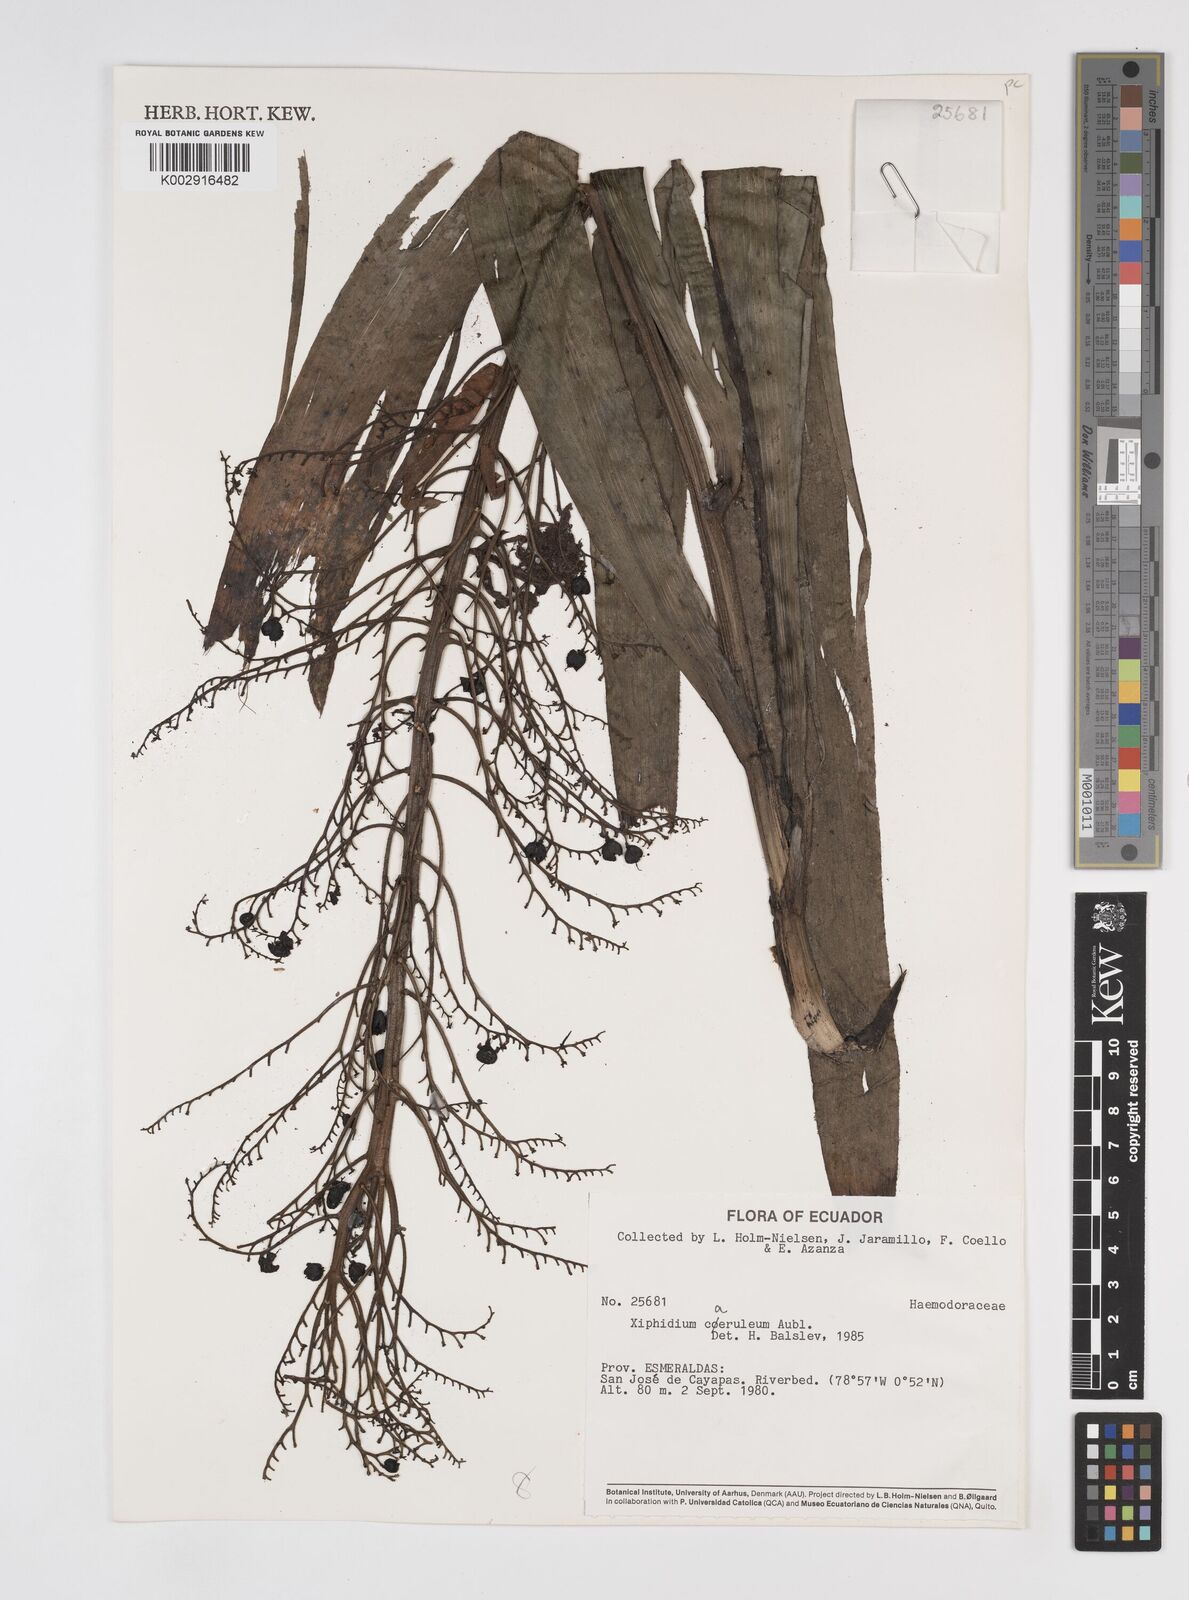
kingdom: Plantae
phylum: Tracheophyta
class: Liliopsida
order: Commelinales
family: Haemodoraceae
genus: Xiphidium
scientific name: Xiphidium caeruleum
